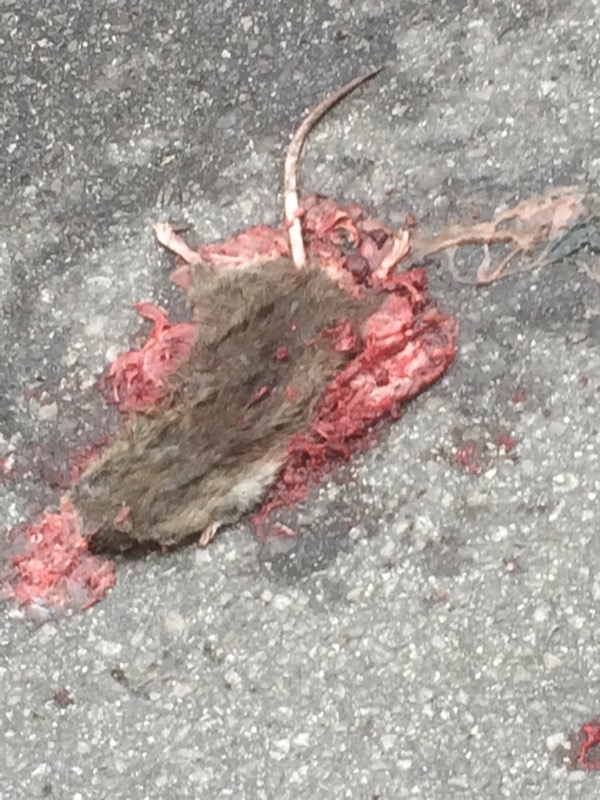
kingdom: Animalia
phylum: Chordata
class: Mammalia
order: Rodentia
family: Muridae
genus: Rattus
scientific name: Rattus norvegicus
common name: Brown rat
